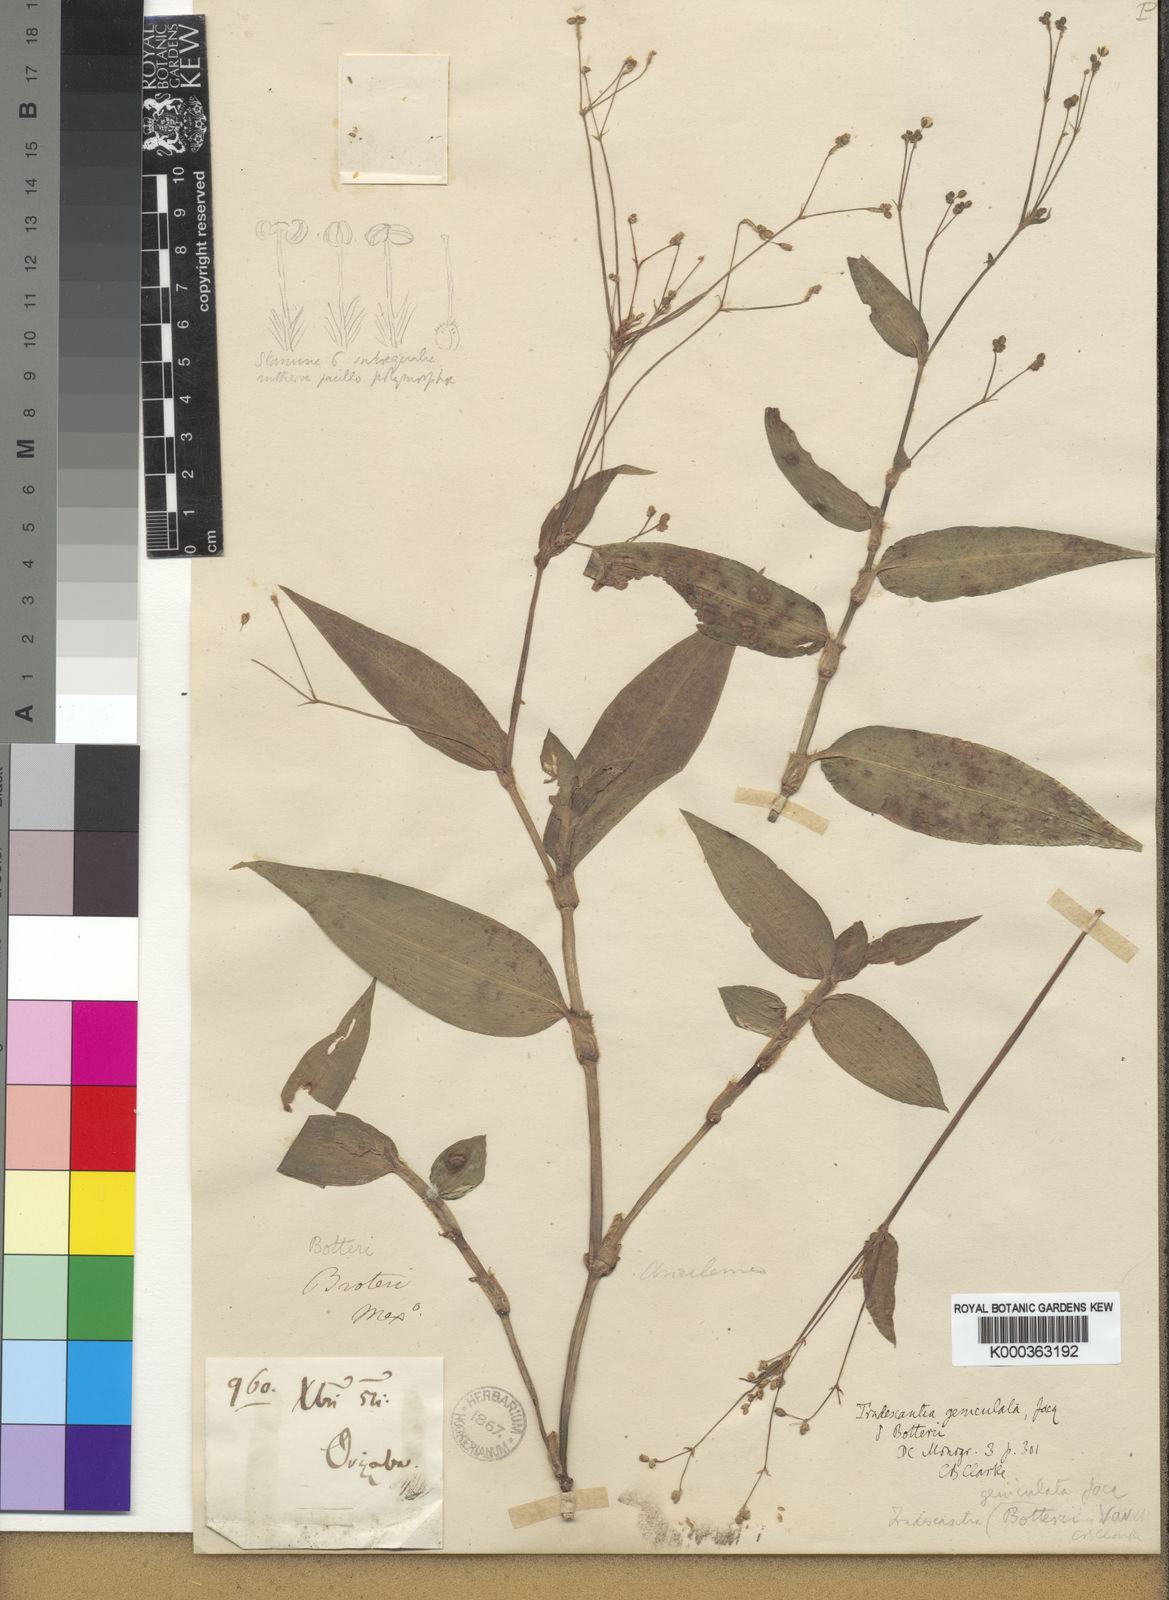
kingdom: Plantae
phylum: Tracheophyta
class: Liliopsida
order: Commelinales
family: Commelinaceae
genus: Gibasis
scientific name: Gibasis
